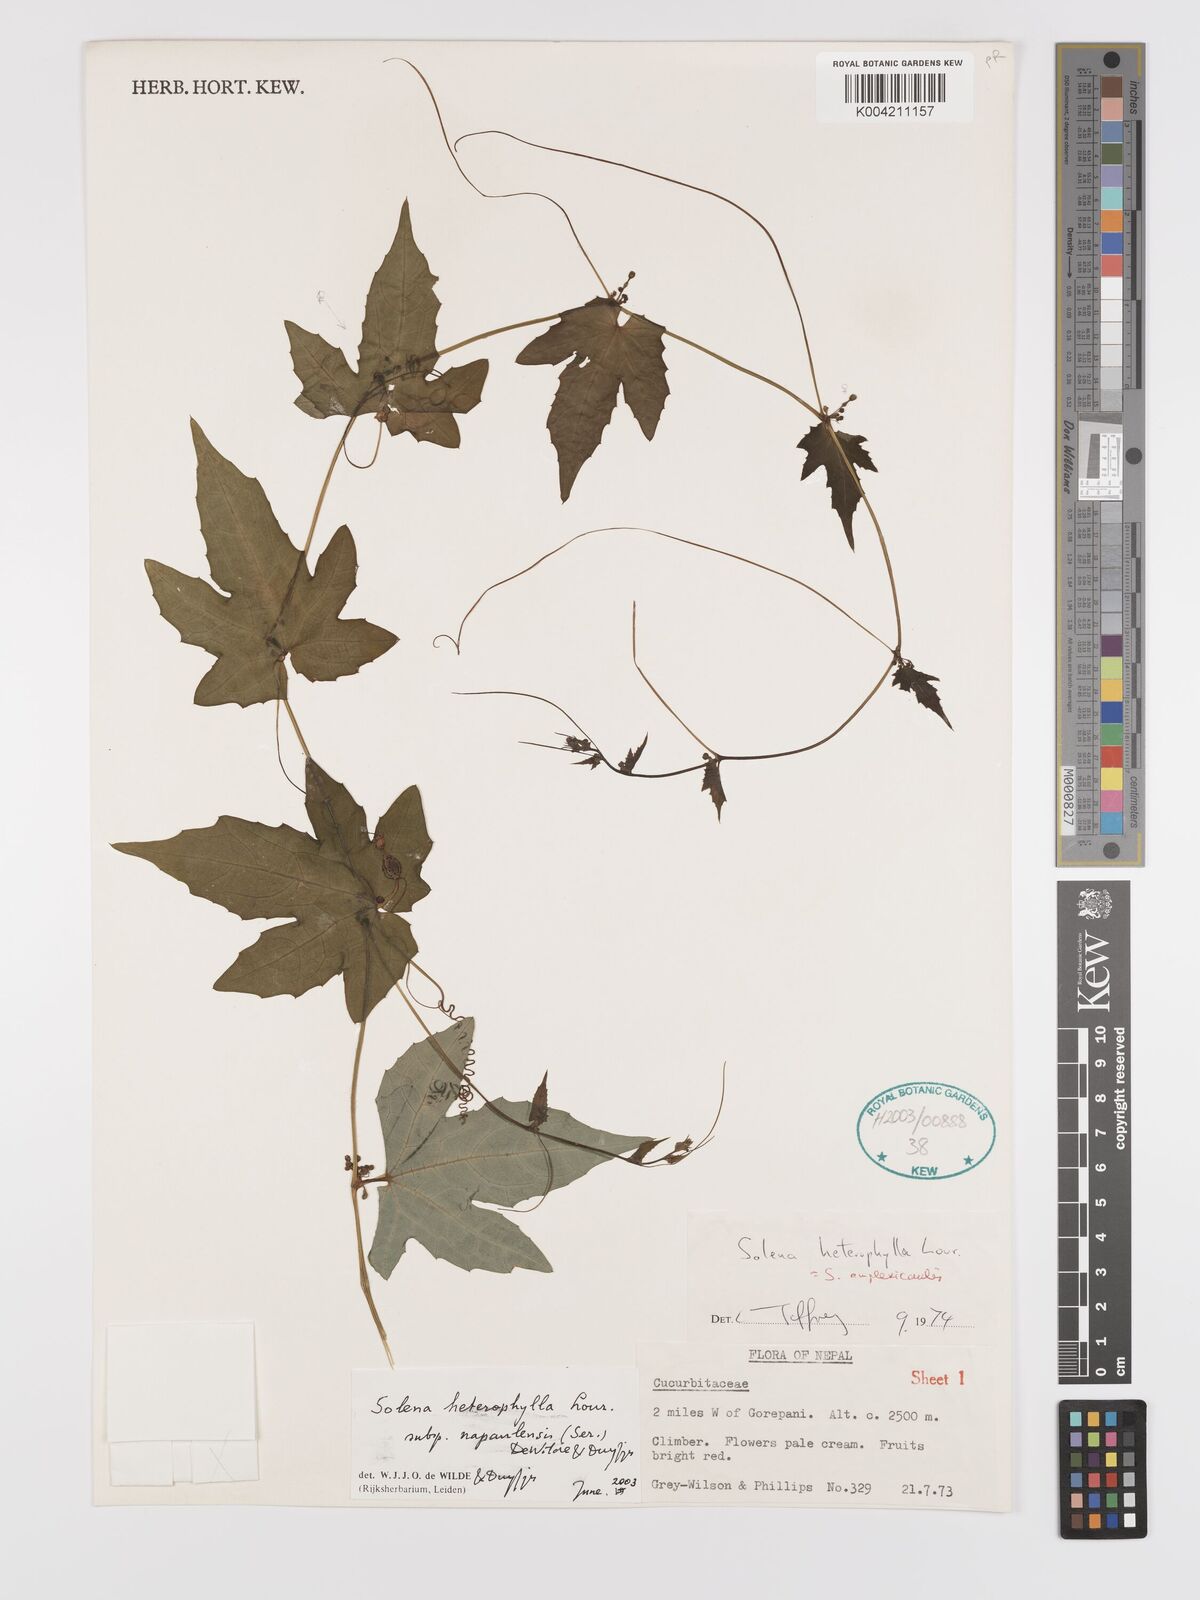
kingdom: Plantae
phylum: Tracheophyta
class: Magnoliopsida
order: Cucurbitales
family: Cucurbitaceae
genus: Solena
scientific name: Solena
